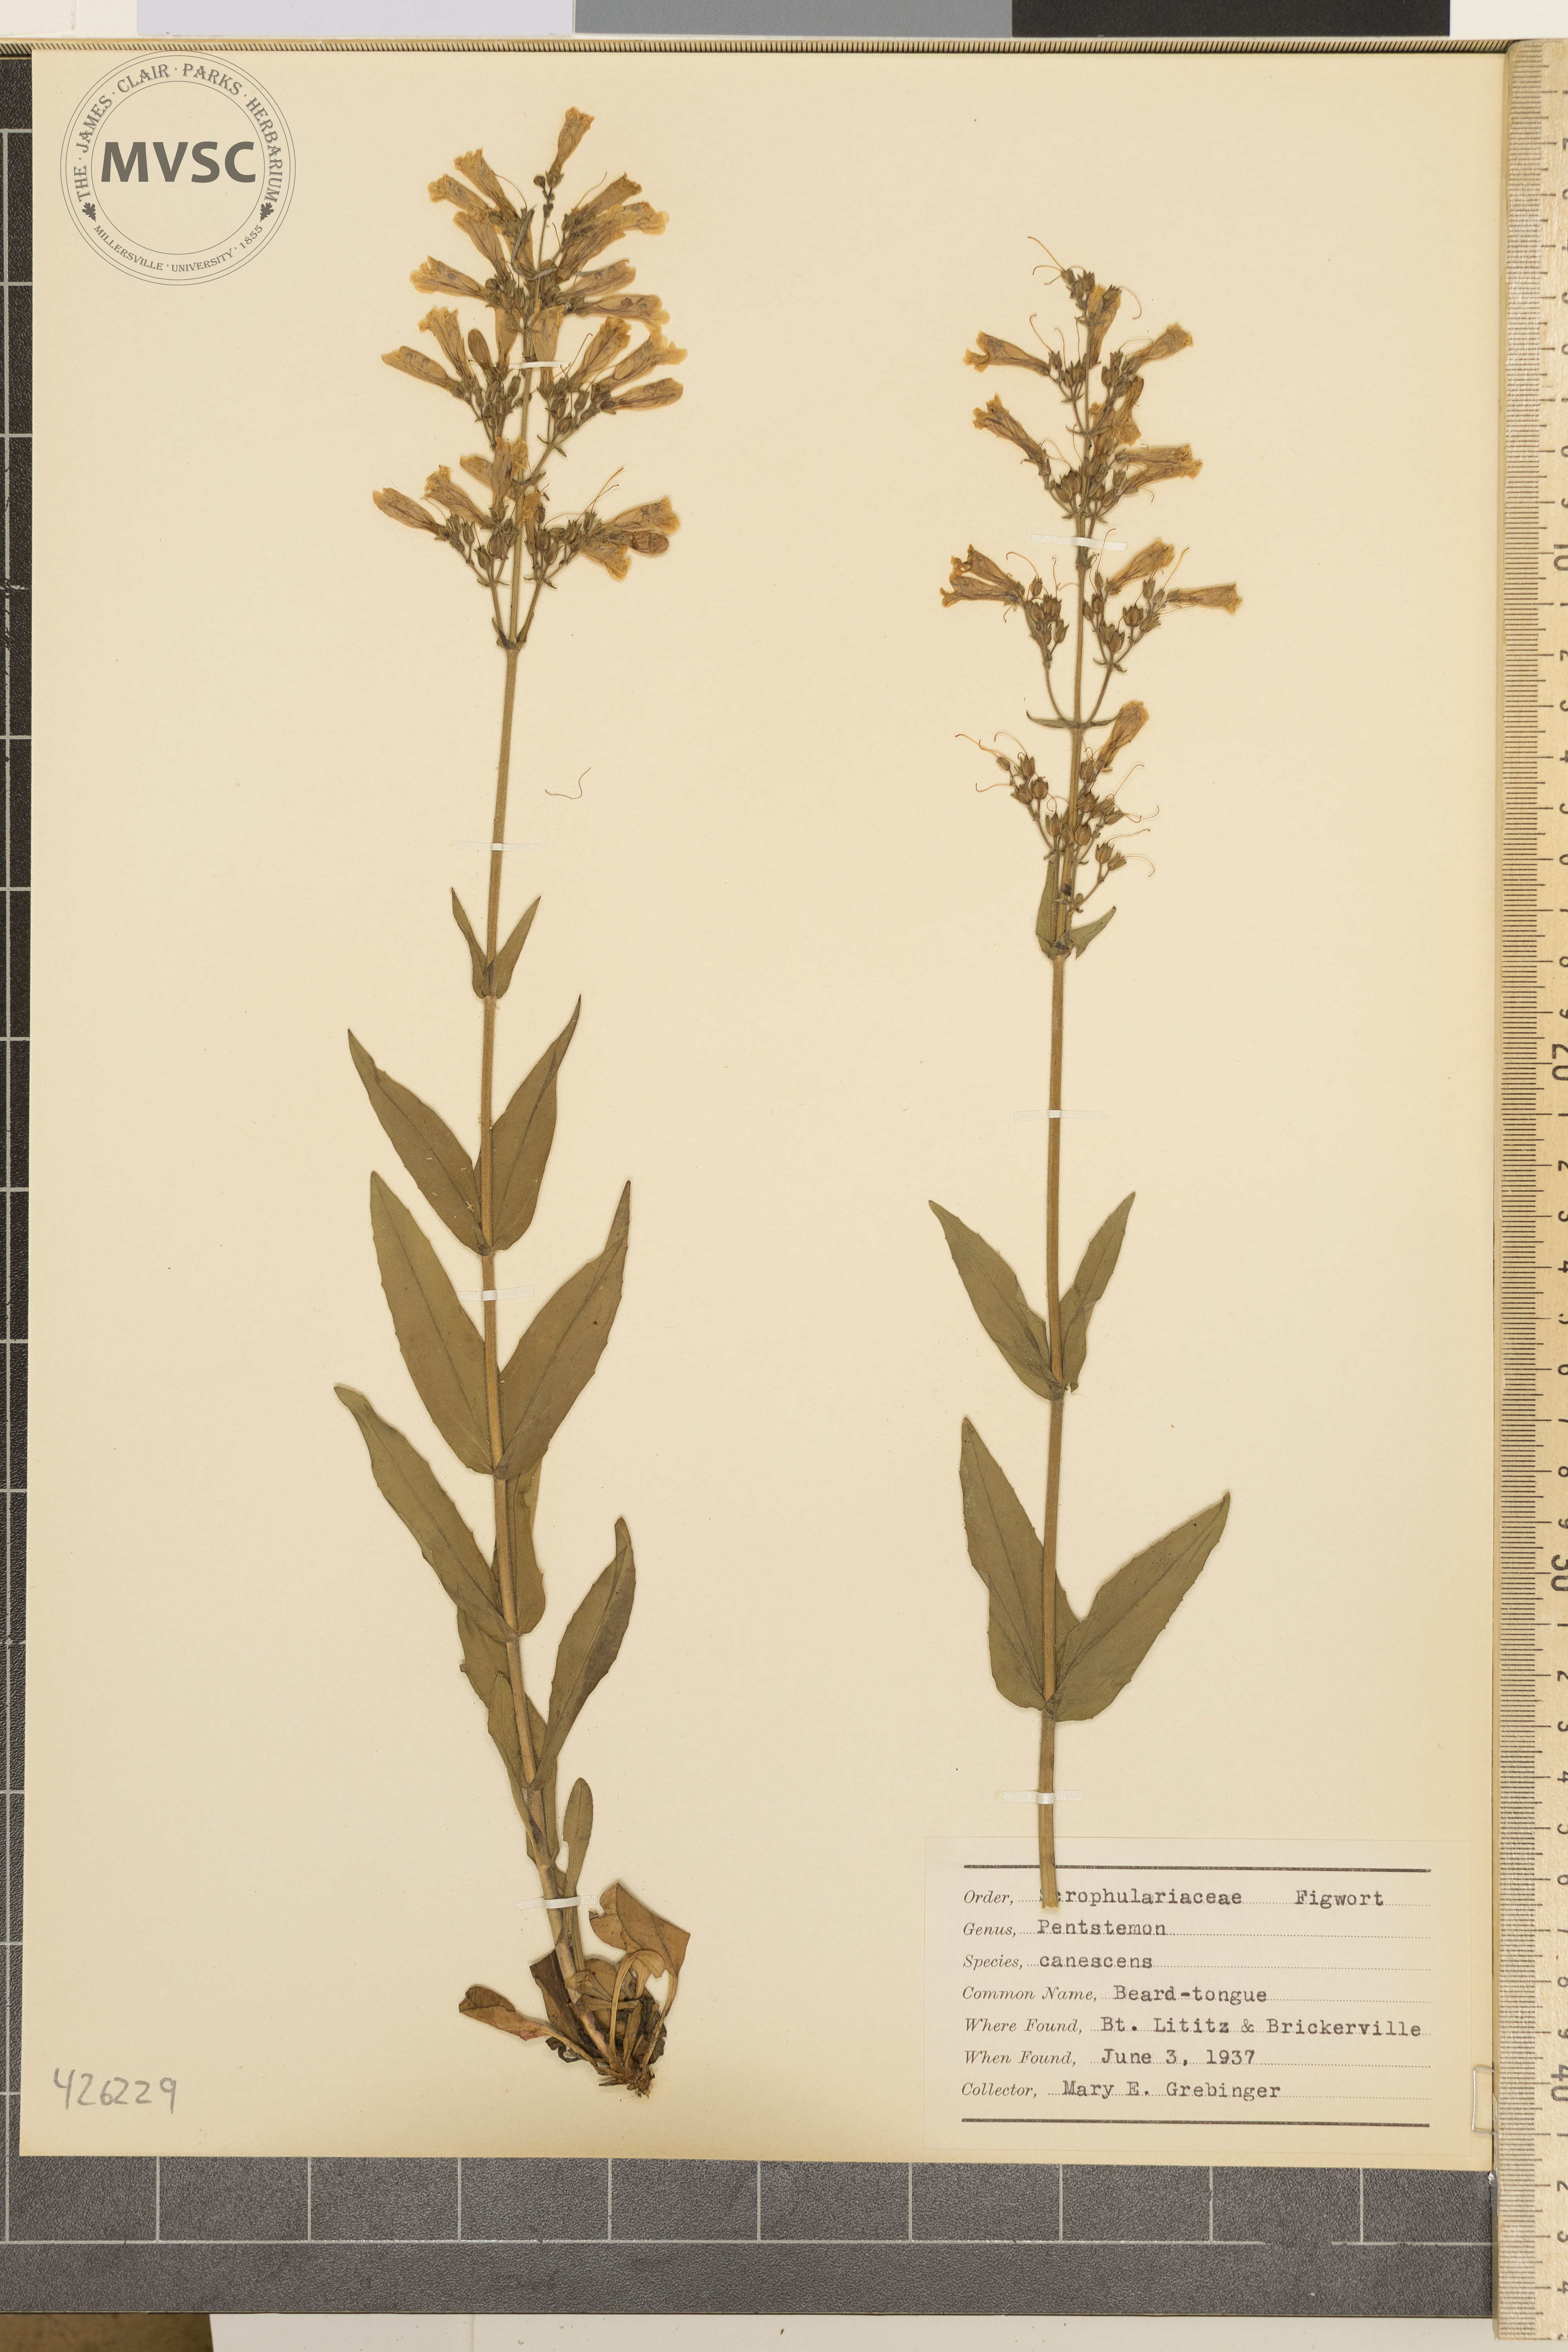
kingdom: Plantae
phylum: Tracheophyta
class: Magnoliopsida
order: Lamiales
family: Plantaginaceae
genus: Penstemon
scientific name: Penstemon hirsutus
